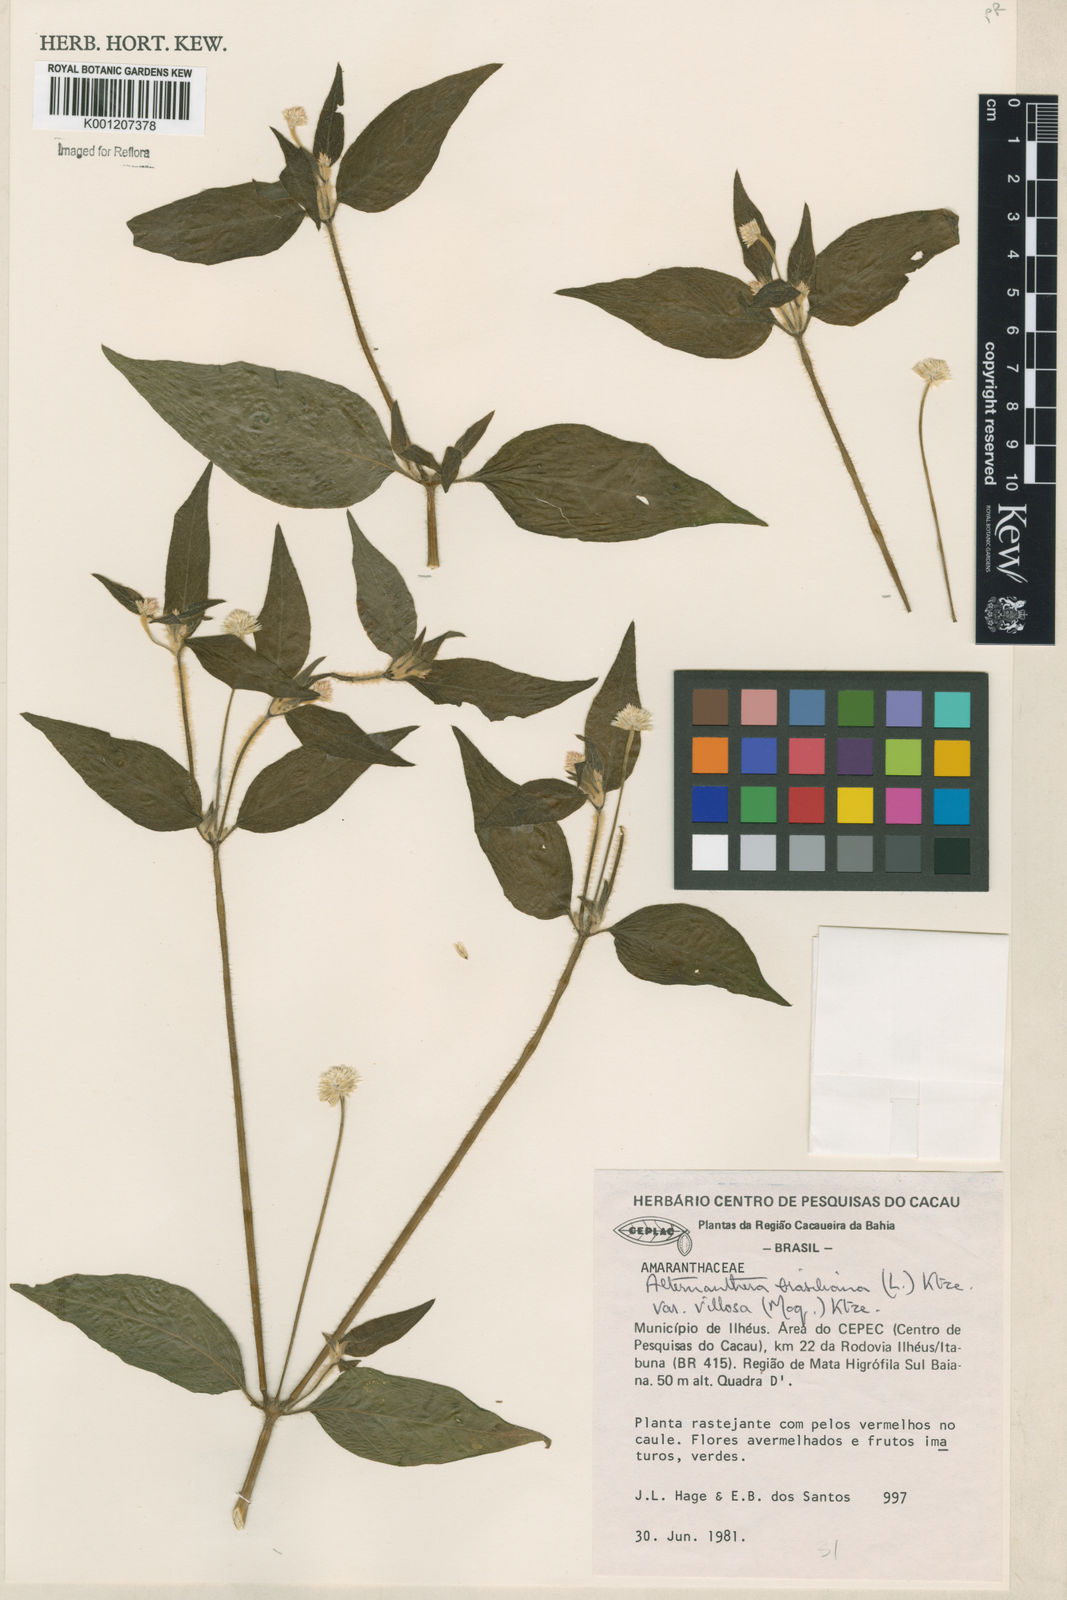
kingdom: Plantae
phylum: Tracheophyta
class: Magnoliopsida
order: Caryophyllales
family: Amaranthaceae
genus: Alternanthera
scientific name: Alternanthera ramosissima
